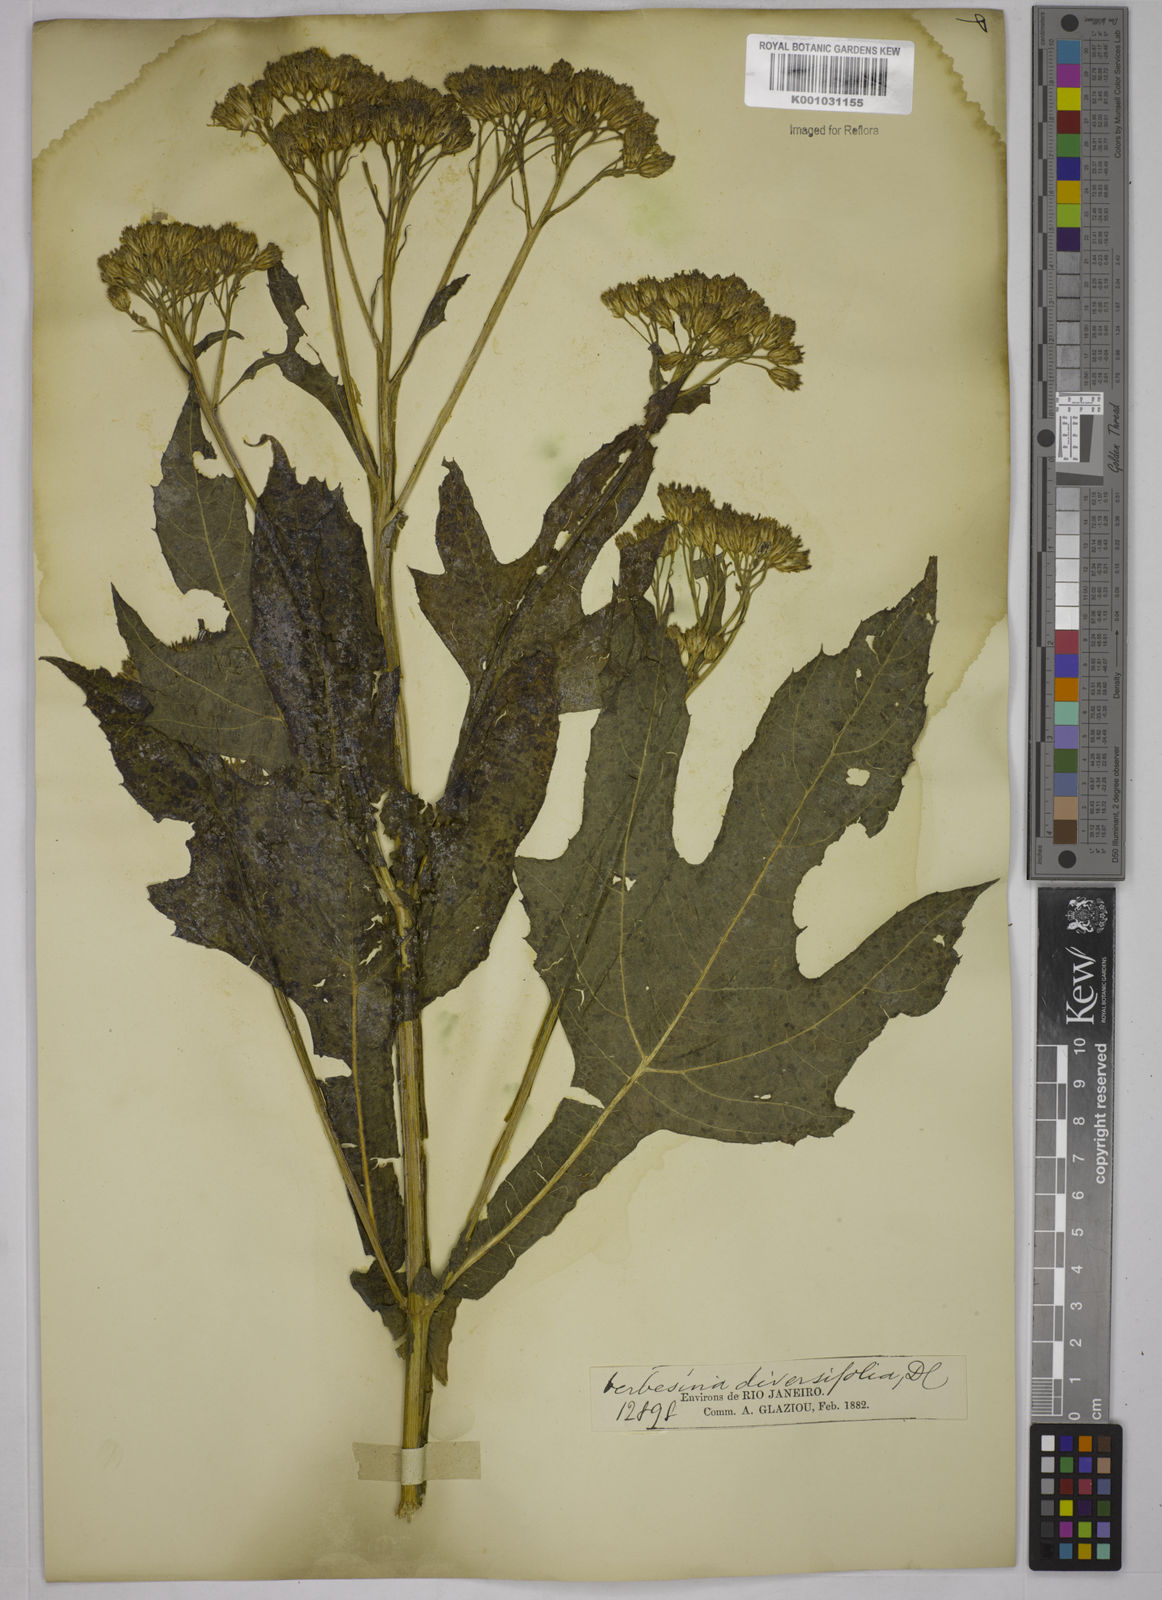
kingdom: Plantae
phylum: Tracheophyta
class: Magnoliopsida
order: Asterales
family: Asteraceae
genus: Verbesina
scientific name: Verbesina macrophylla
